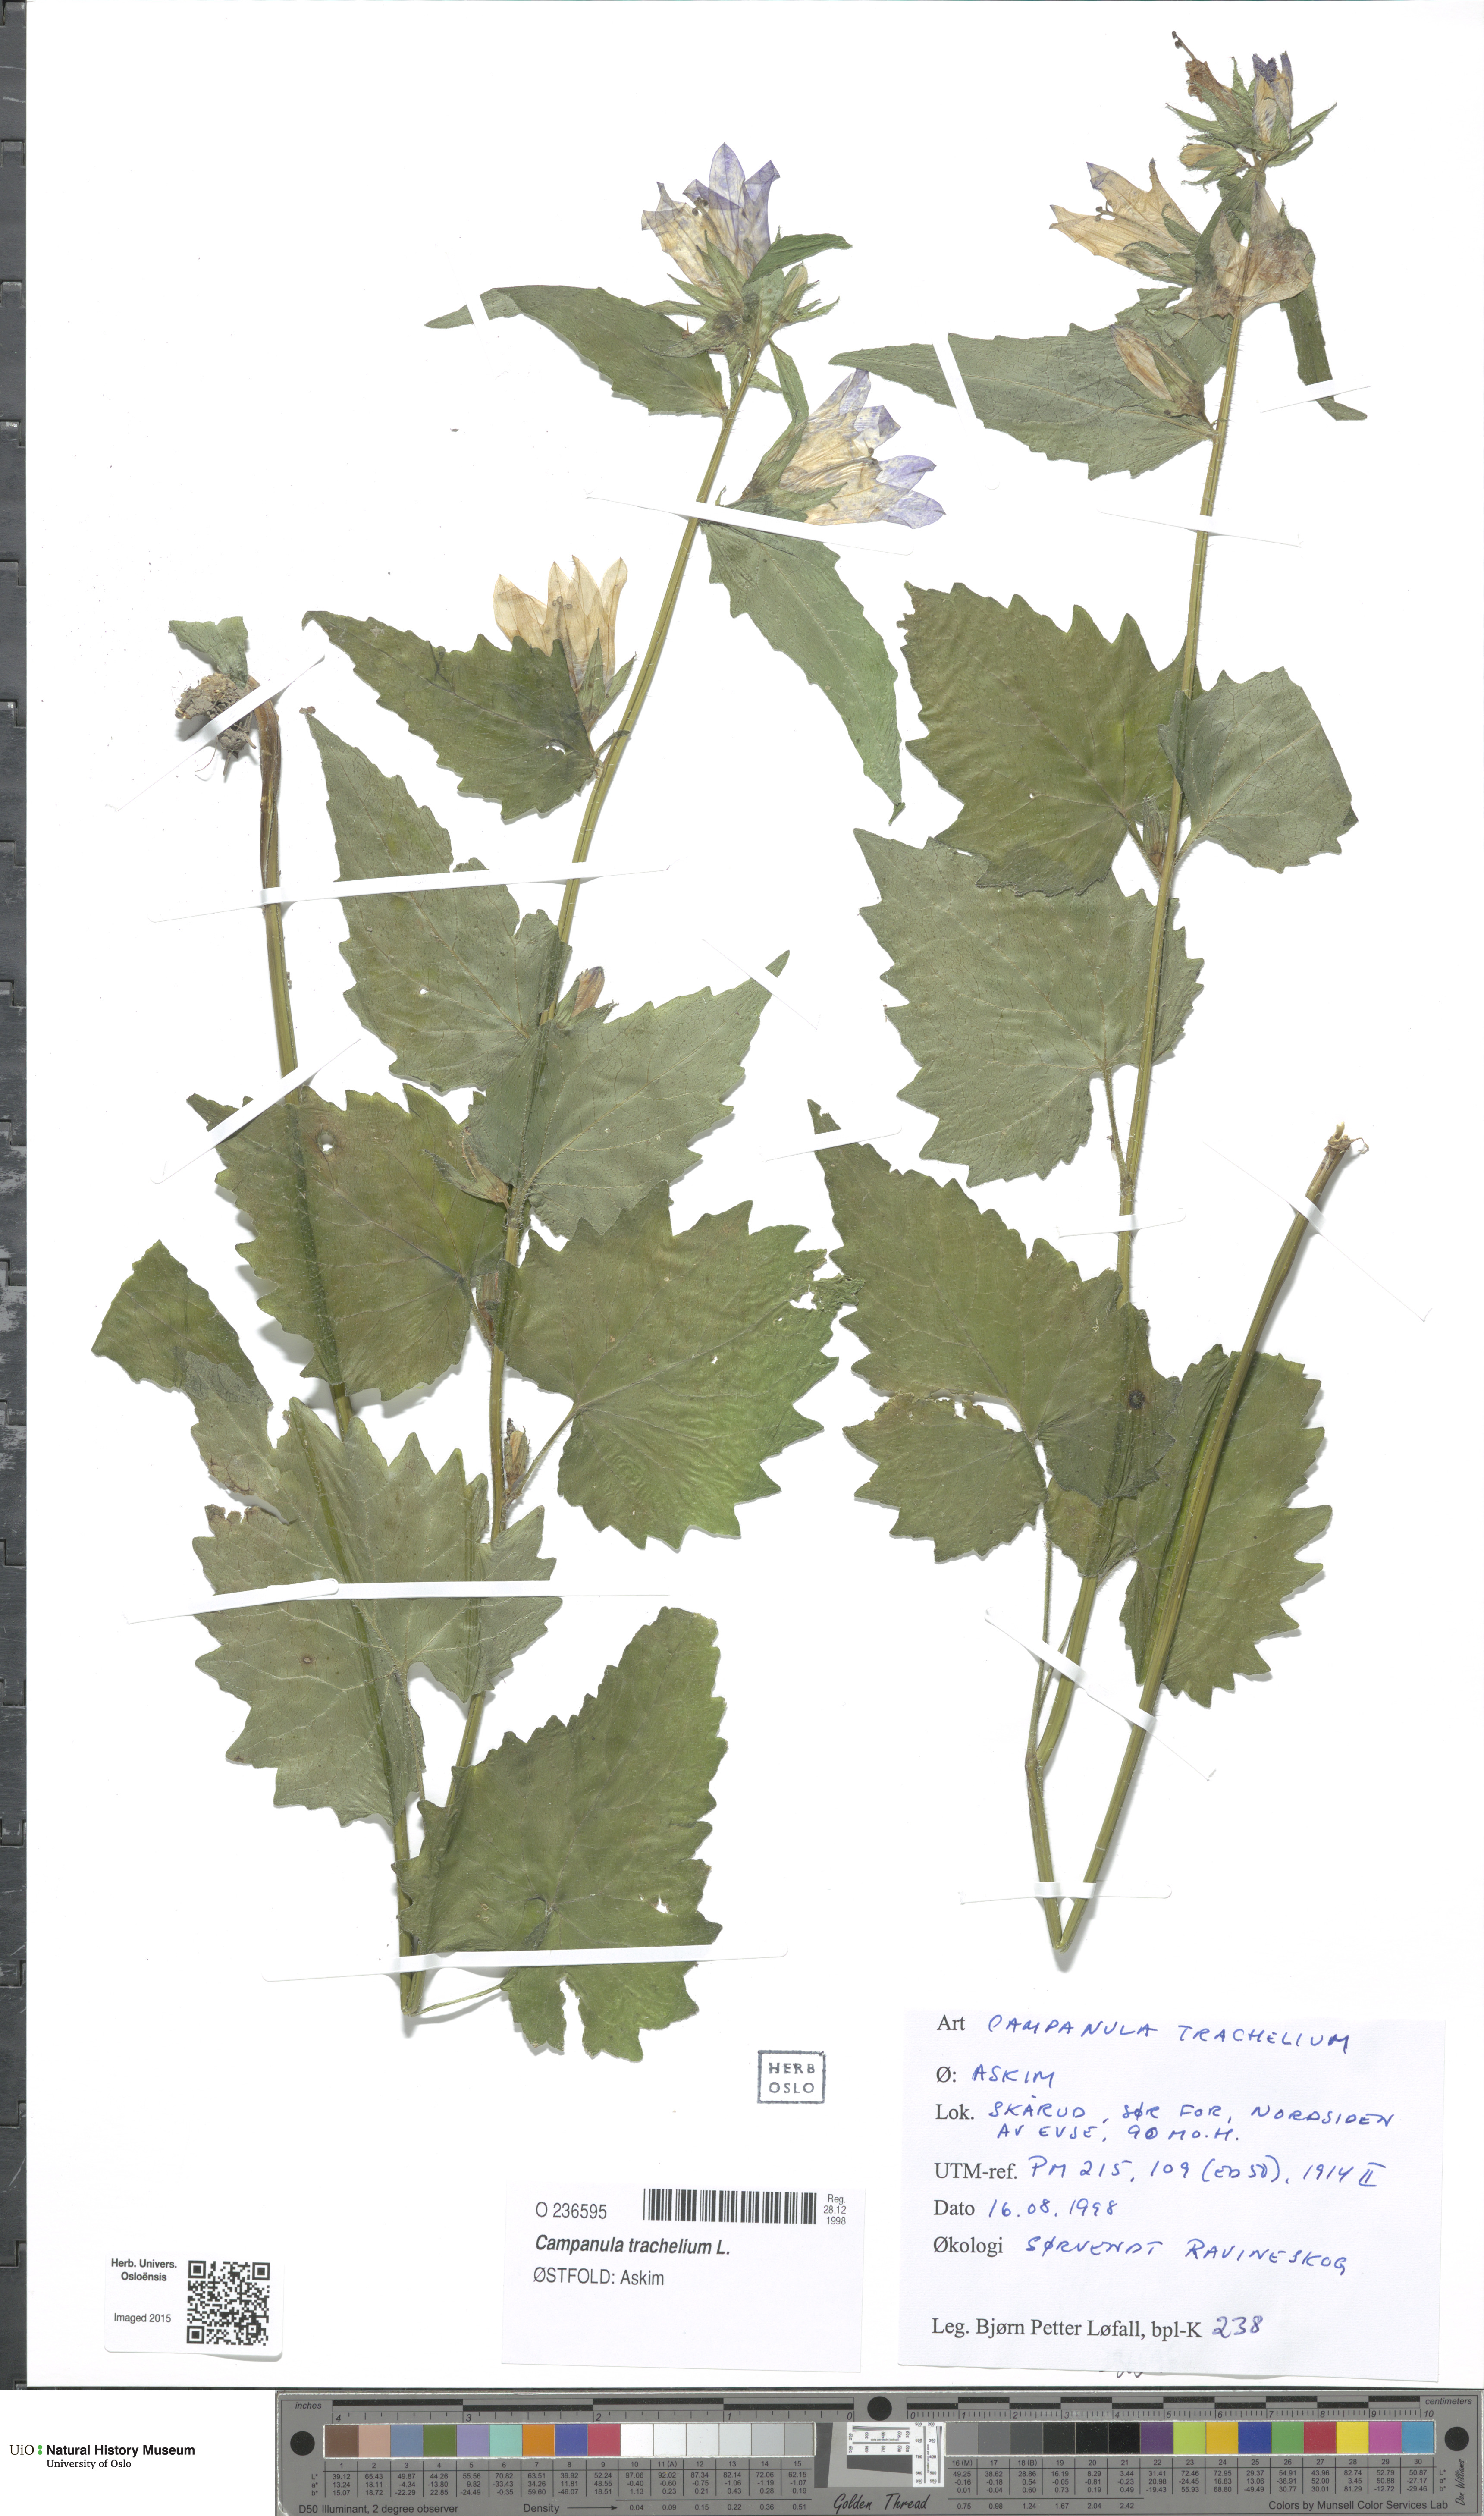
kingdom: Plantae
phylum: Tracheophyta
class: Magnoliopsida
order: Asterales
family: Campanulaceae
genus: Campanula
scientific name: Campanula trachelium
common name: Nettle-leaved bellflower
